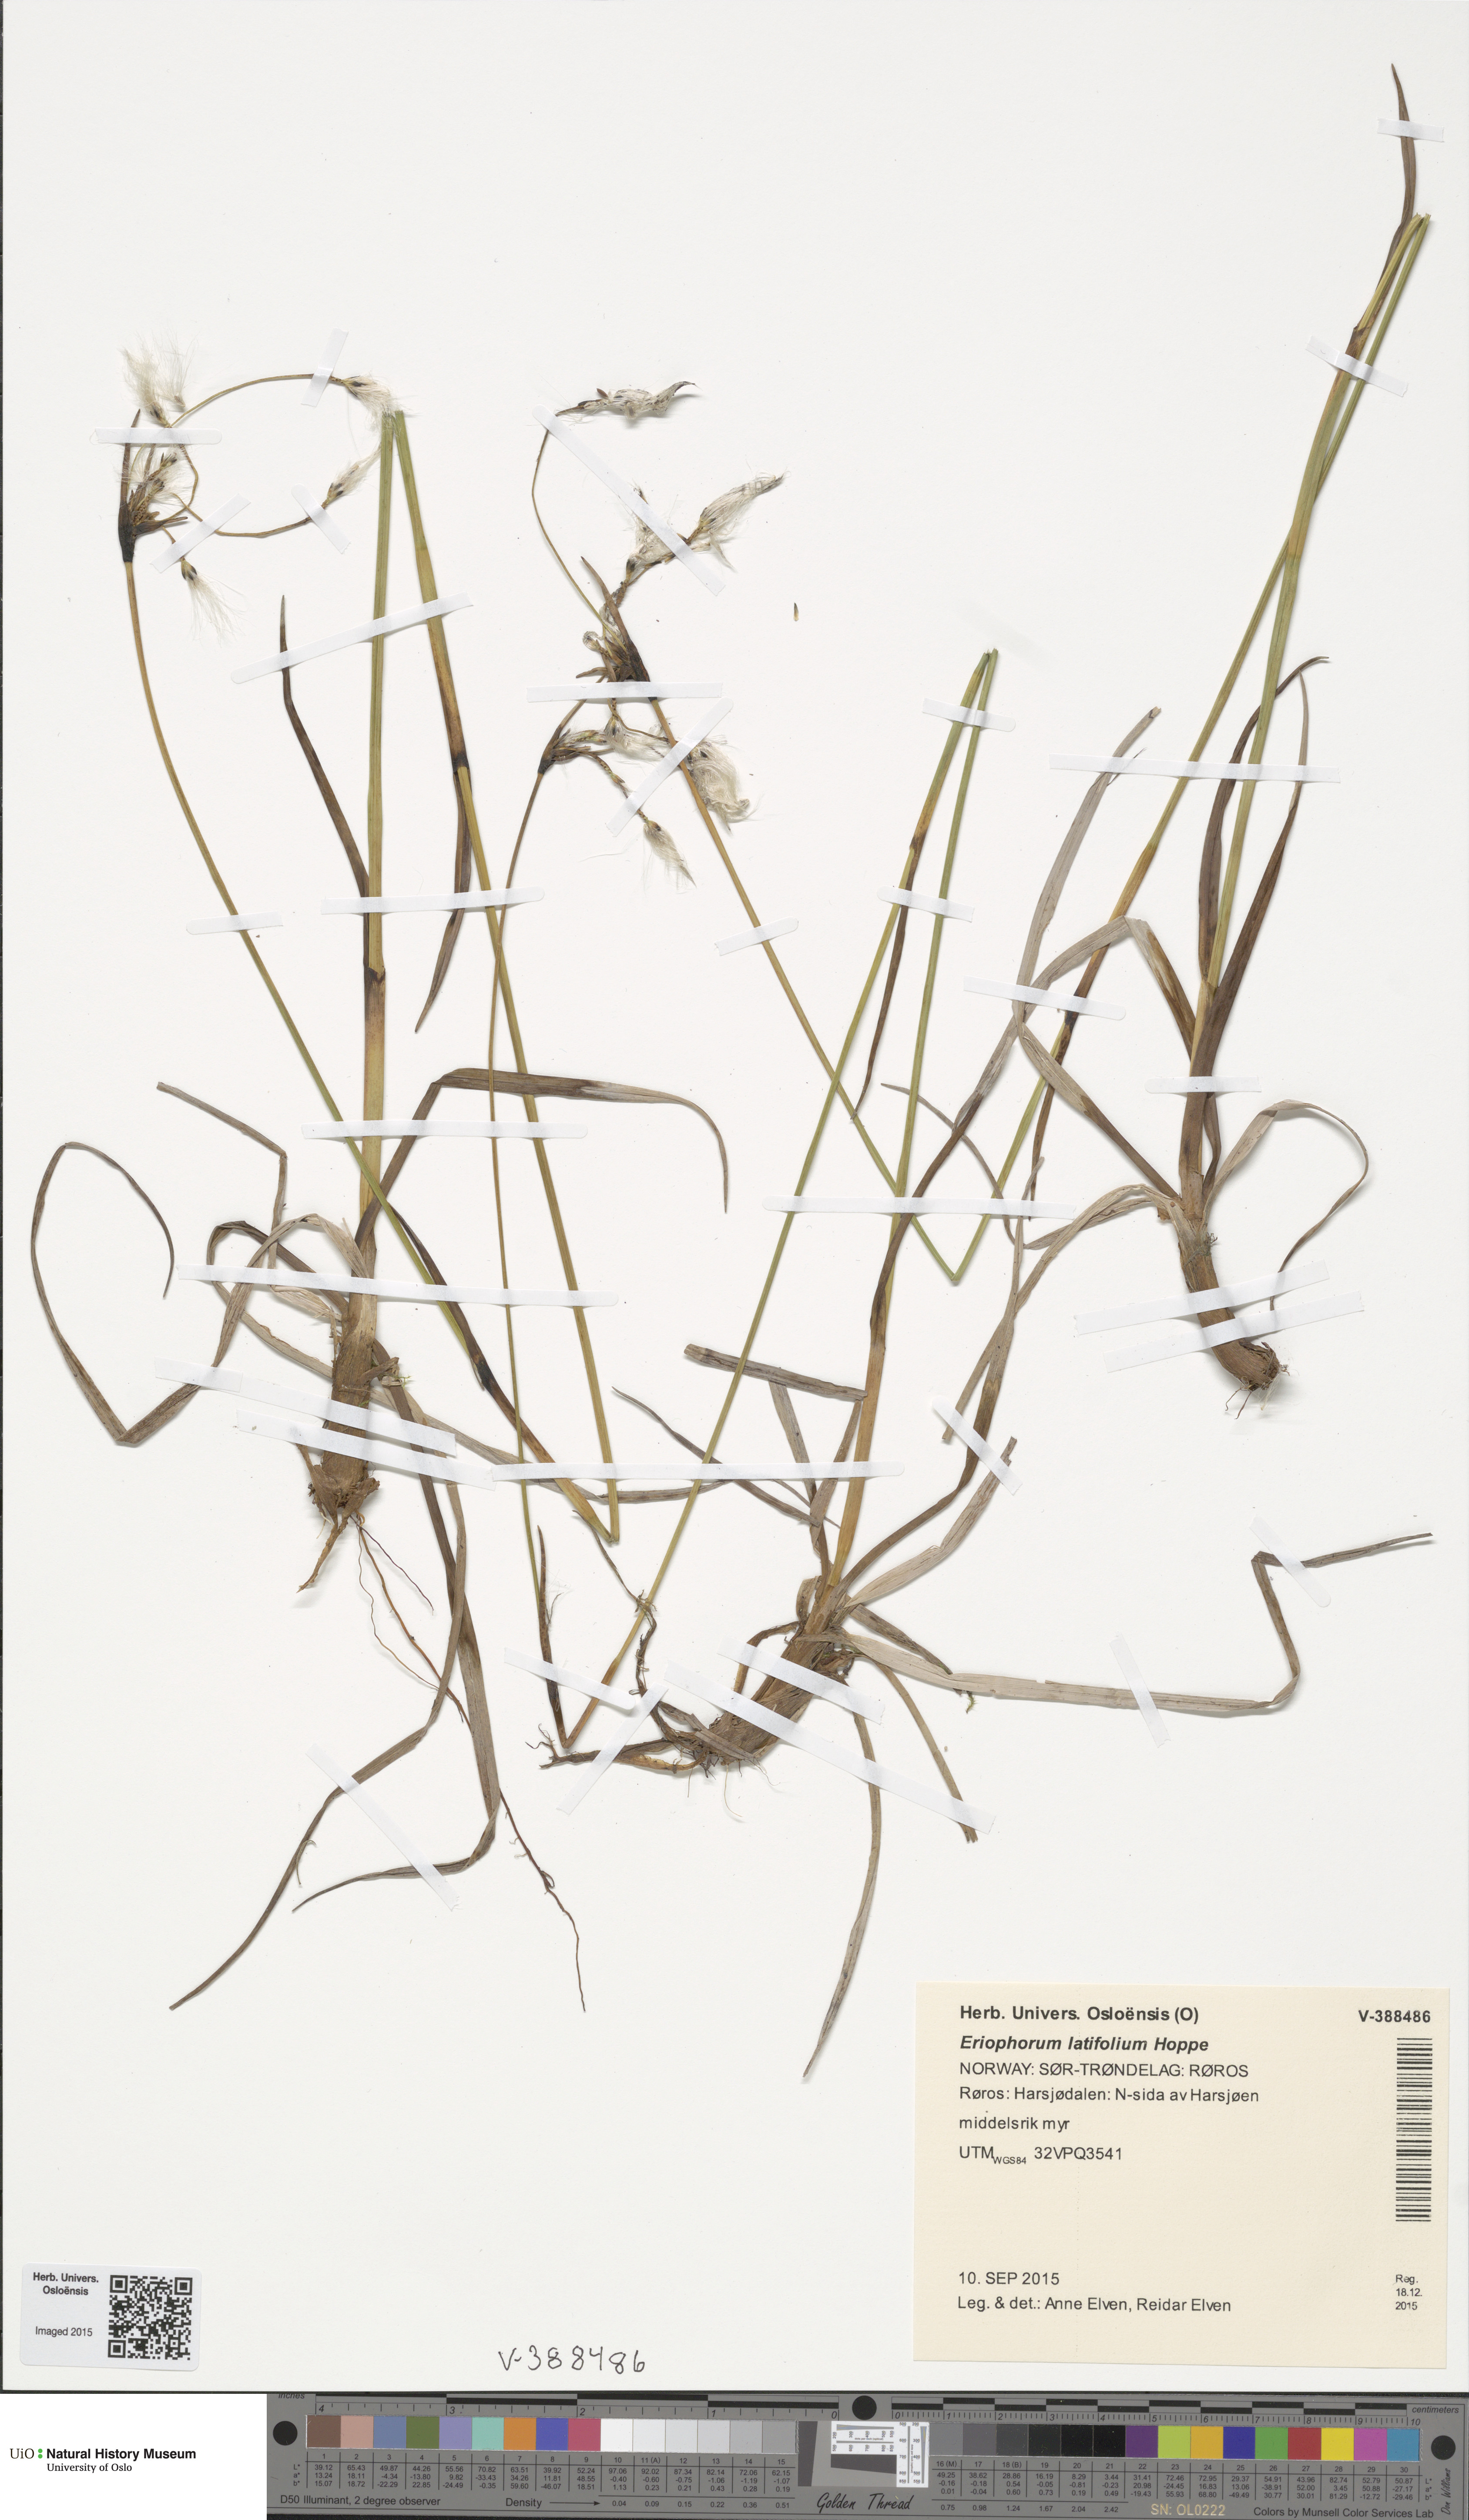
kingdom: Plantae
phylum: Tracheophyta
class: Liliopsida
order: Poales
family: Cyperaceae
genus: Eriophorum
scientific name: Eriophorum latifolium
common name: Broad-leaved cottongrass
